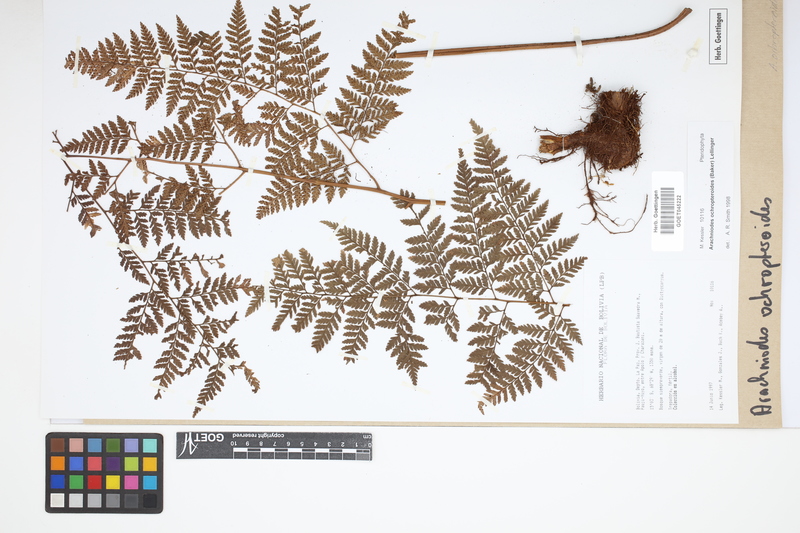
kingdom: Plantae
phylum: Tracheophyta
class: Polypodiopsida
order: Polypodiales
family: Dryopteridaceae
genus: Olfersia
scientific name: Olfersia ochropteroides
